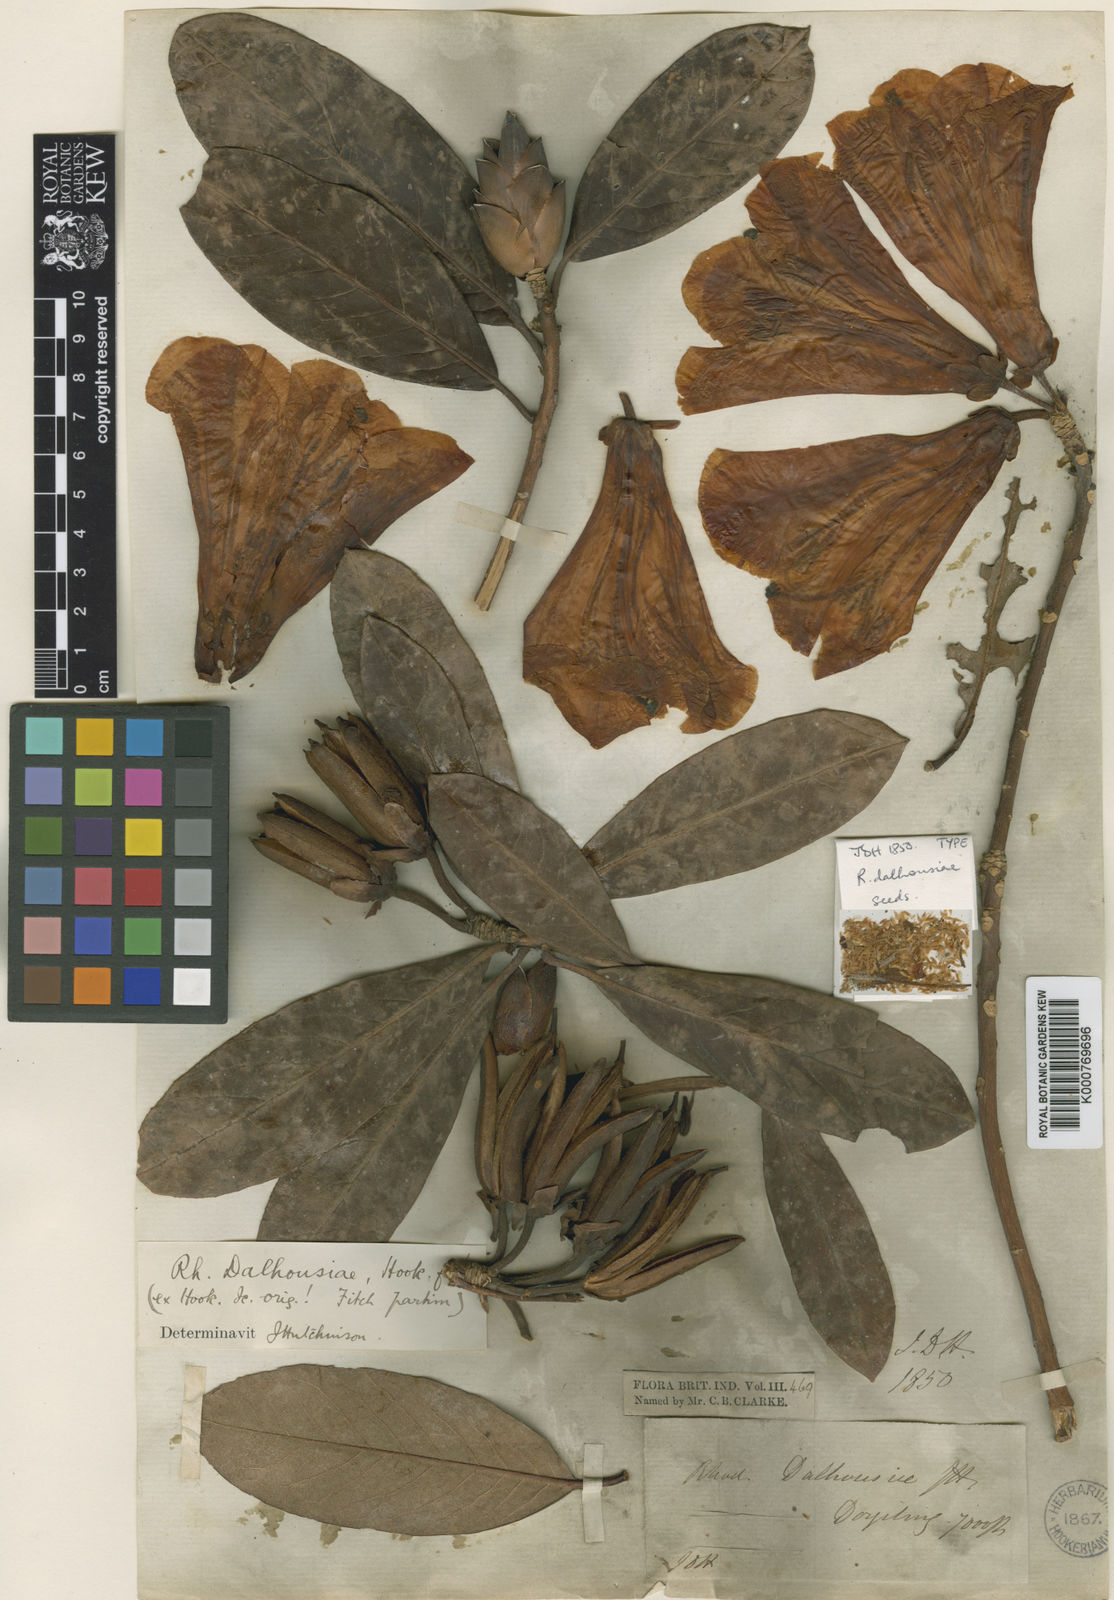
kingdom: Plantae
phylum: Tracheophyta
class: Magnoliopsida
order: Ericales
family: Ericaceae
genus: Rhododendron
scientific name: Rhododendron dalhousieae
